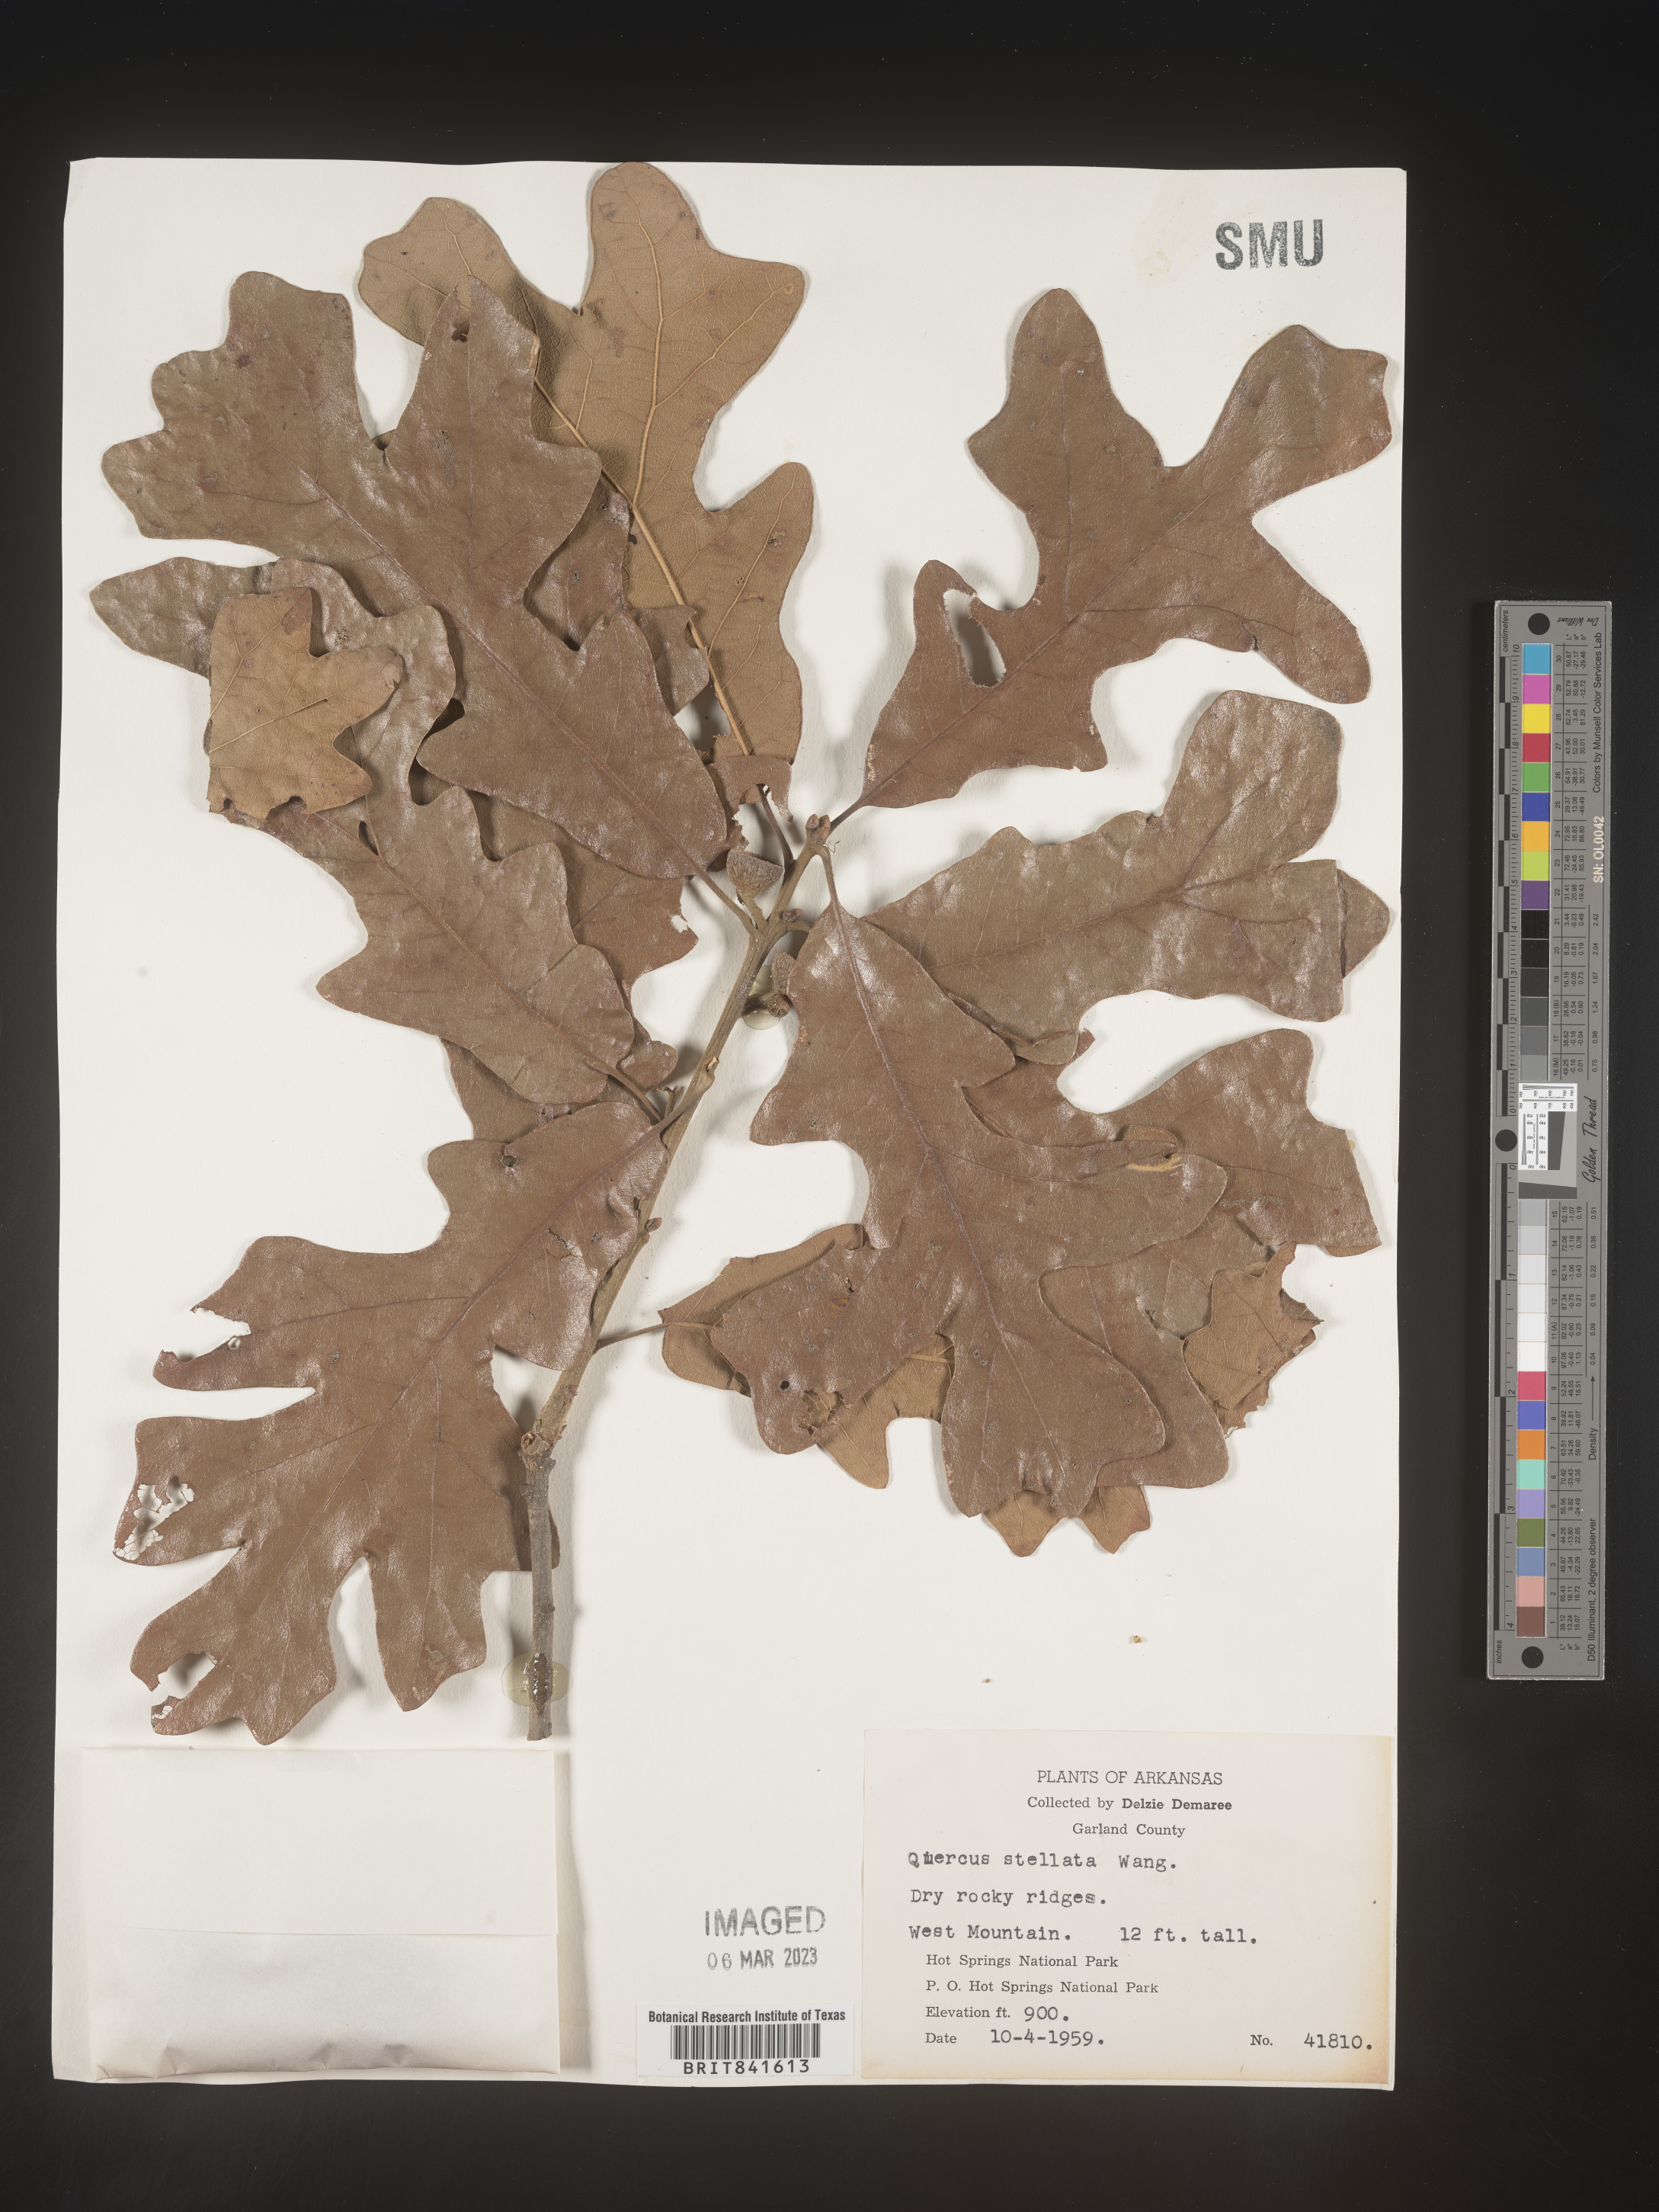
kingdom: Plantae
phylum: Tracheophyta
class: Magnoliopsida
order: Fagales
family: Fagaceae
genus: Quercus
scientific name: Quercus stellata
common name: Post oak
